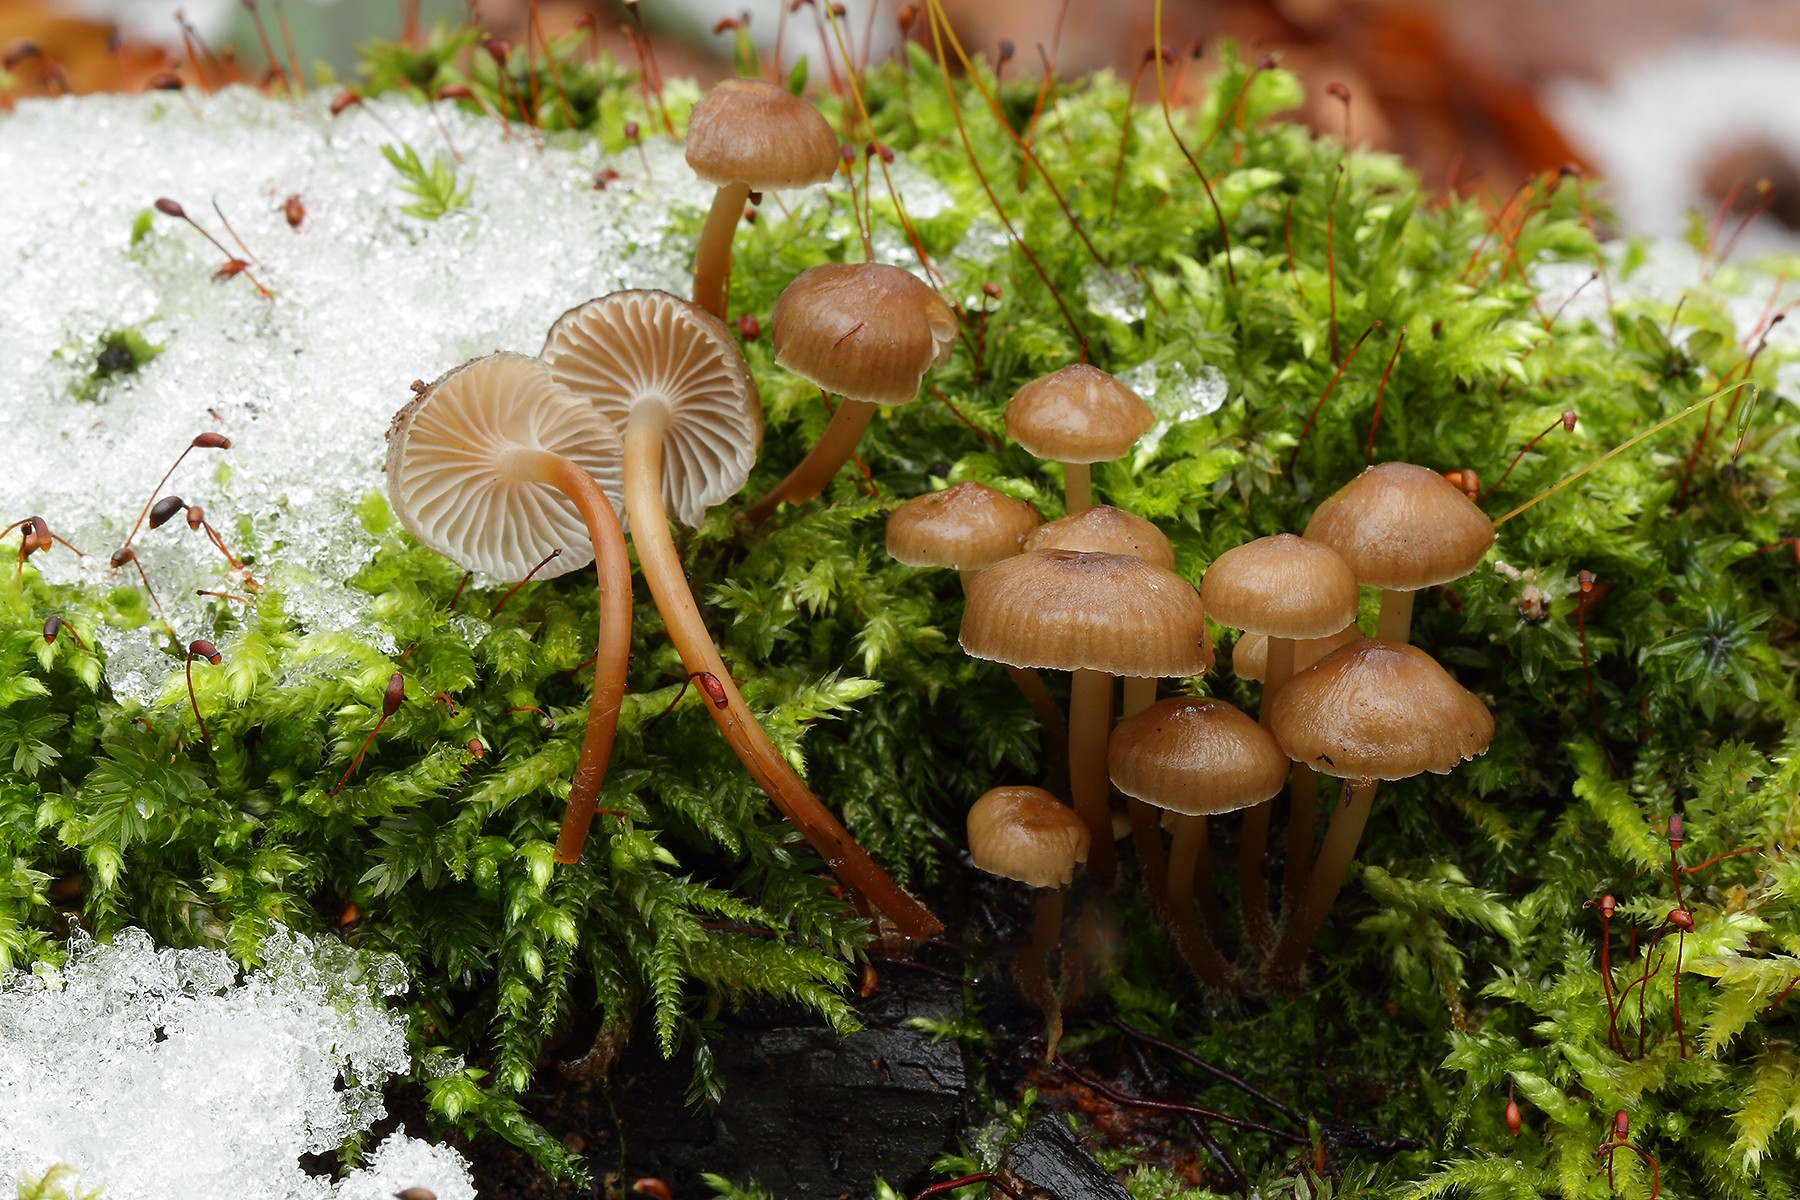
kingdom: Fungi
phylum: Basidiomycota
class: Agaricomycetes
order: Agaricales
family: Mycenaceae
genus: Mycena
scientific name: Mycena tintinnabulum
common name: vinter-huesvamp
